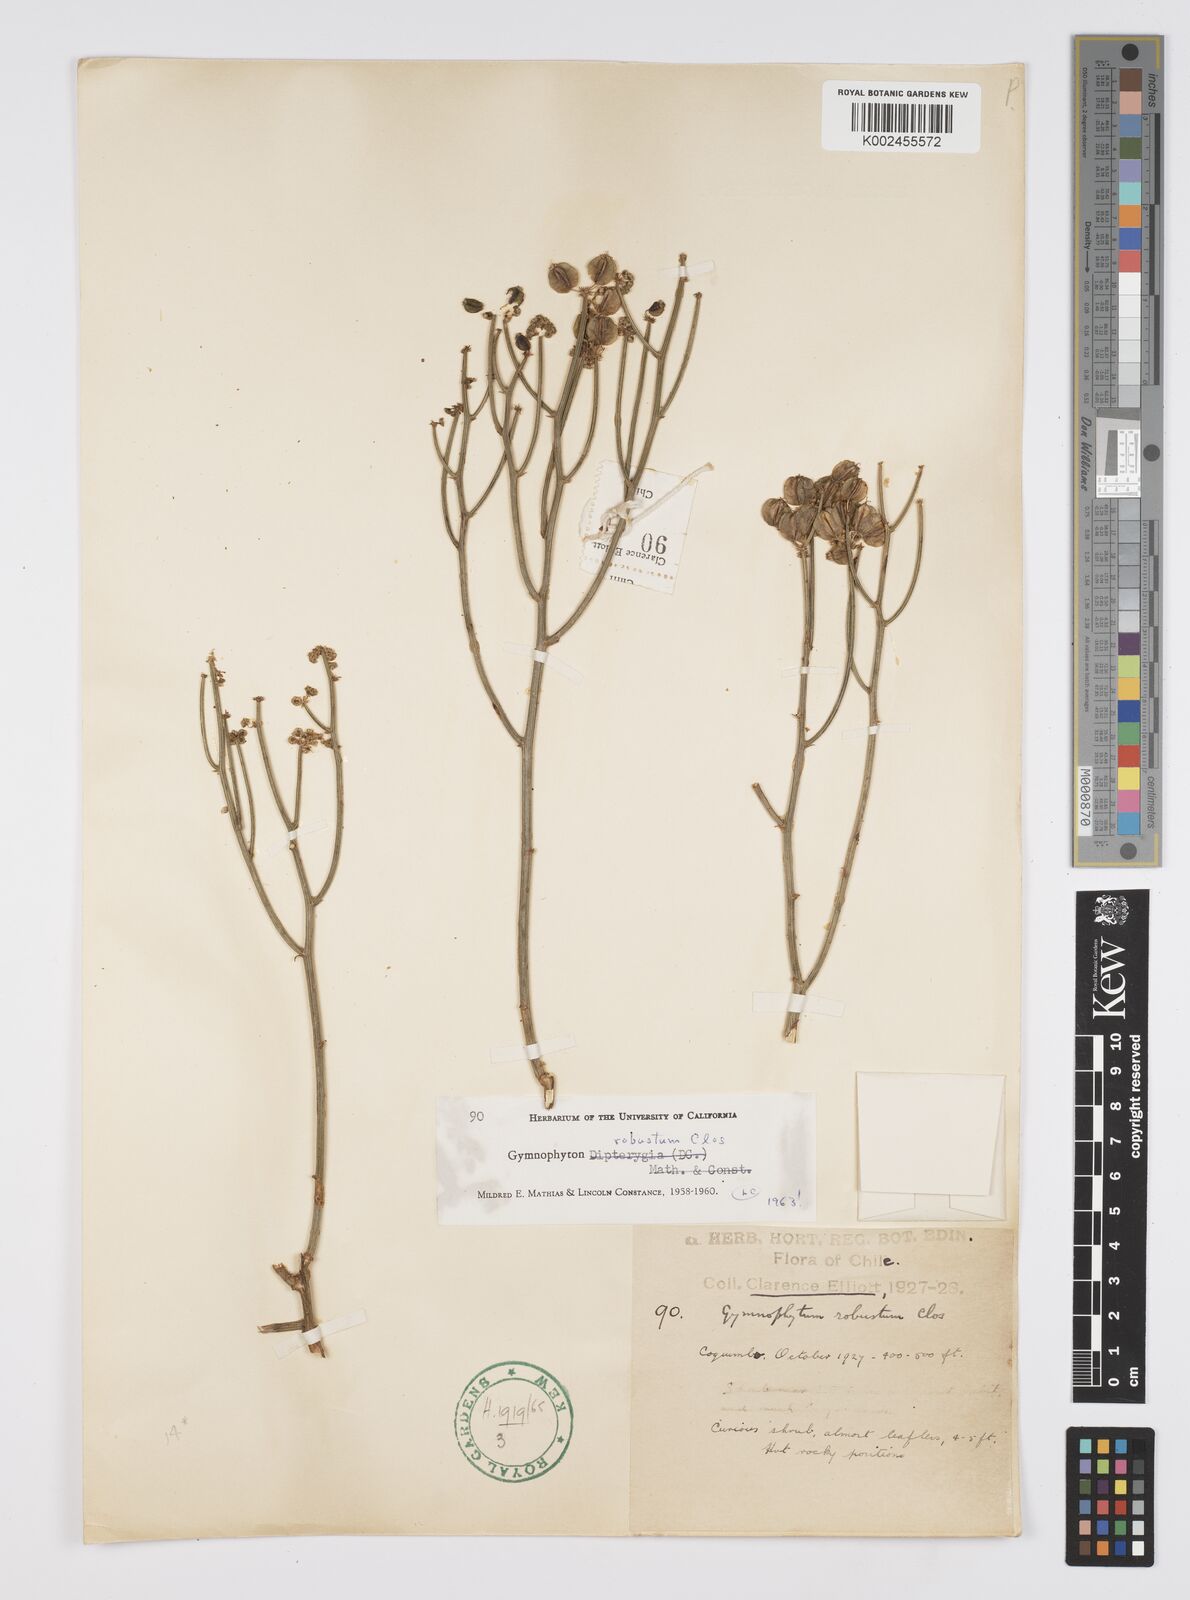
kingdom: Plantae
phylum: Tracheophyta
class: Magnoliopsida
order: Apiales
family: Apiaceae
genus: Gymnophyton
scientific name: Gymnophyton robustum
